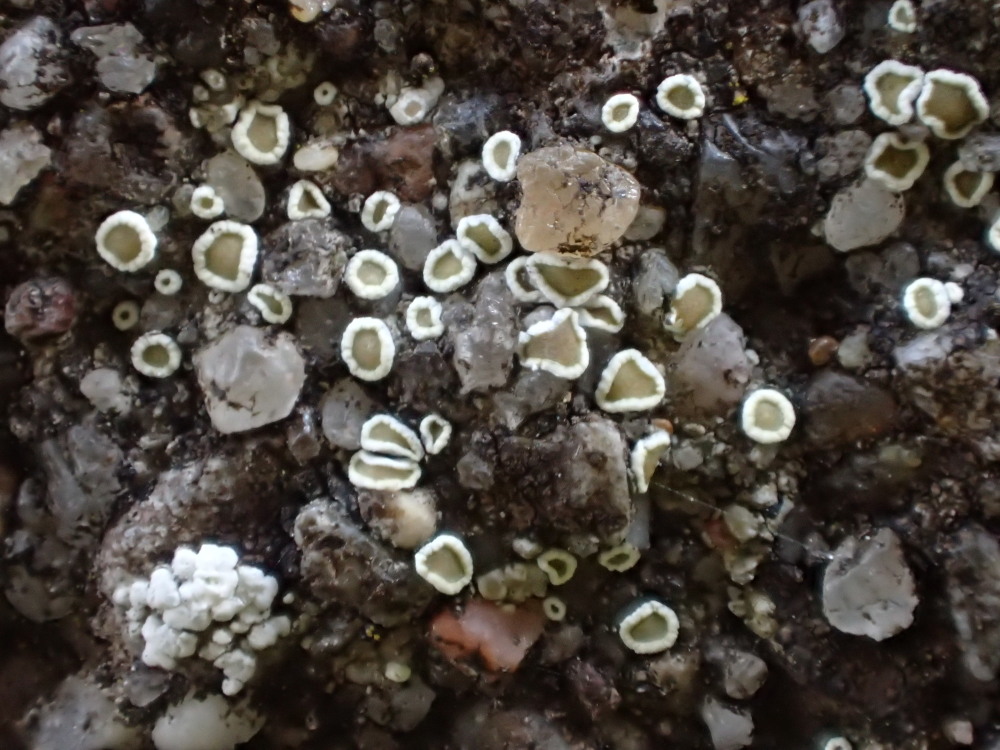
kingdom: Fungi
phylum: Ascomycota
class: Lecanoromycetes
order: Lecanorales
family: Lecanoraceae
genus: Polyozosia
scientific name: Polyozosia dispersa
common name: spredt kantskivelav
